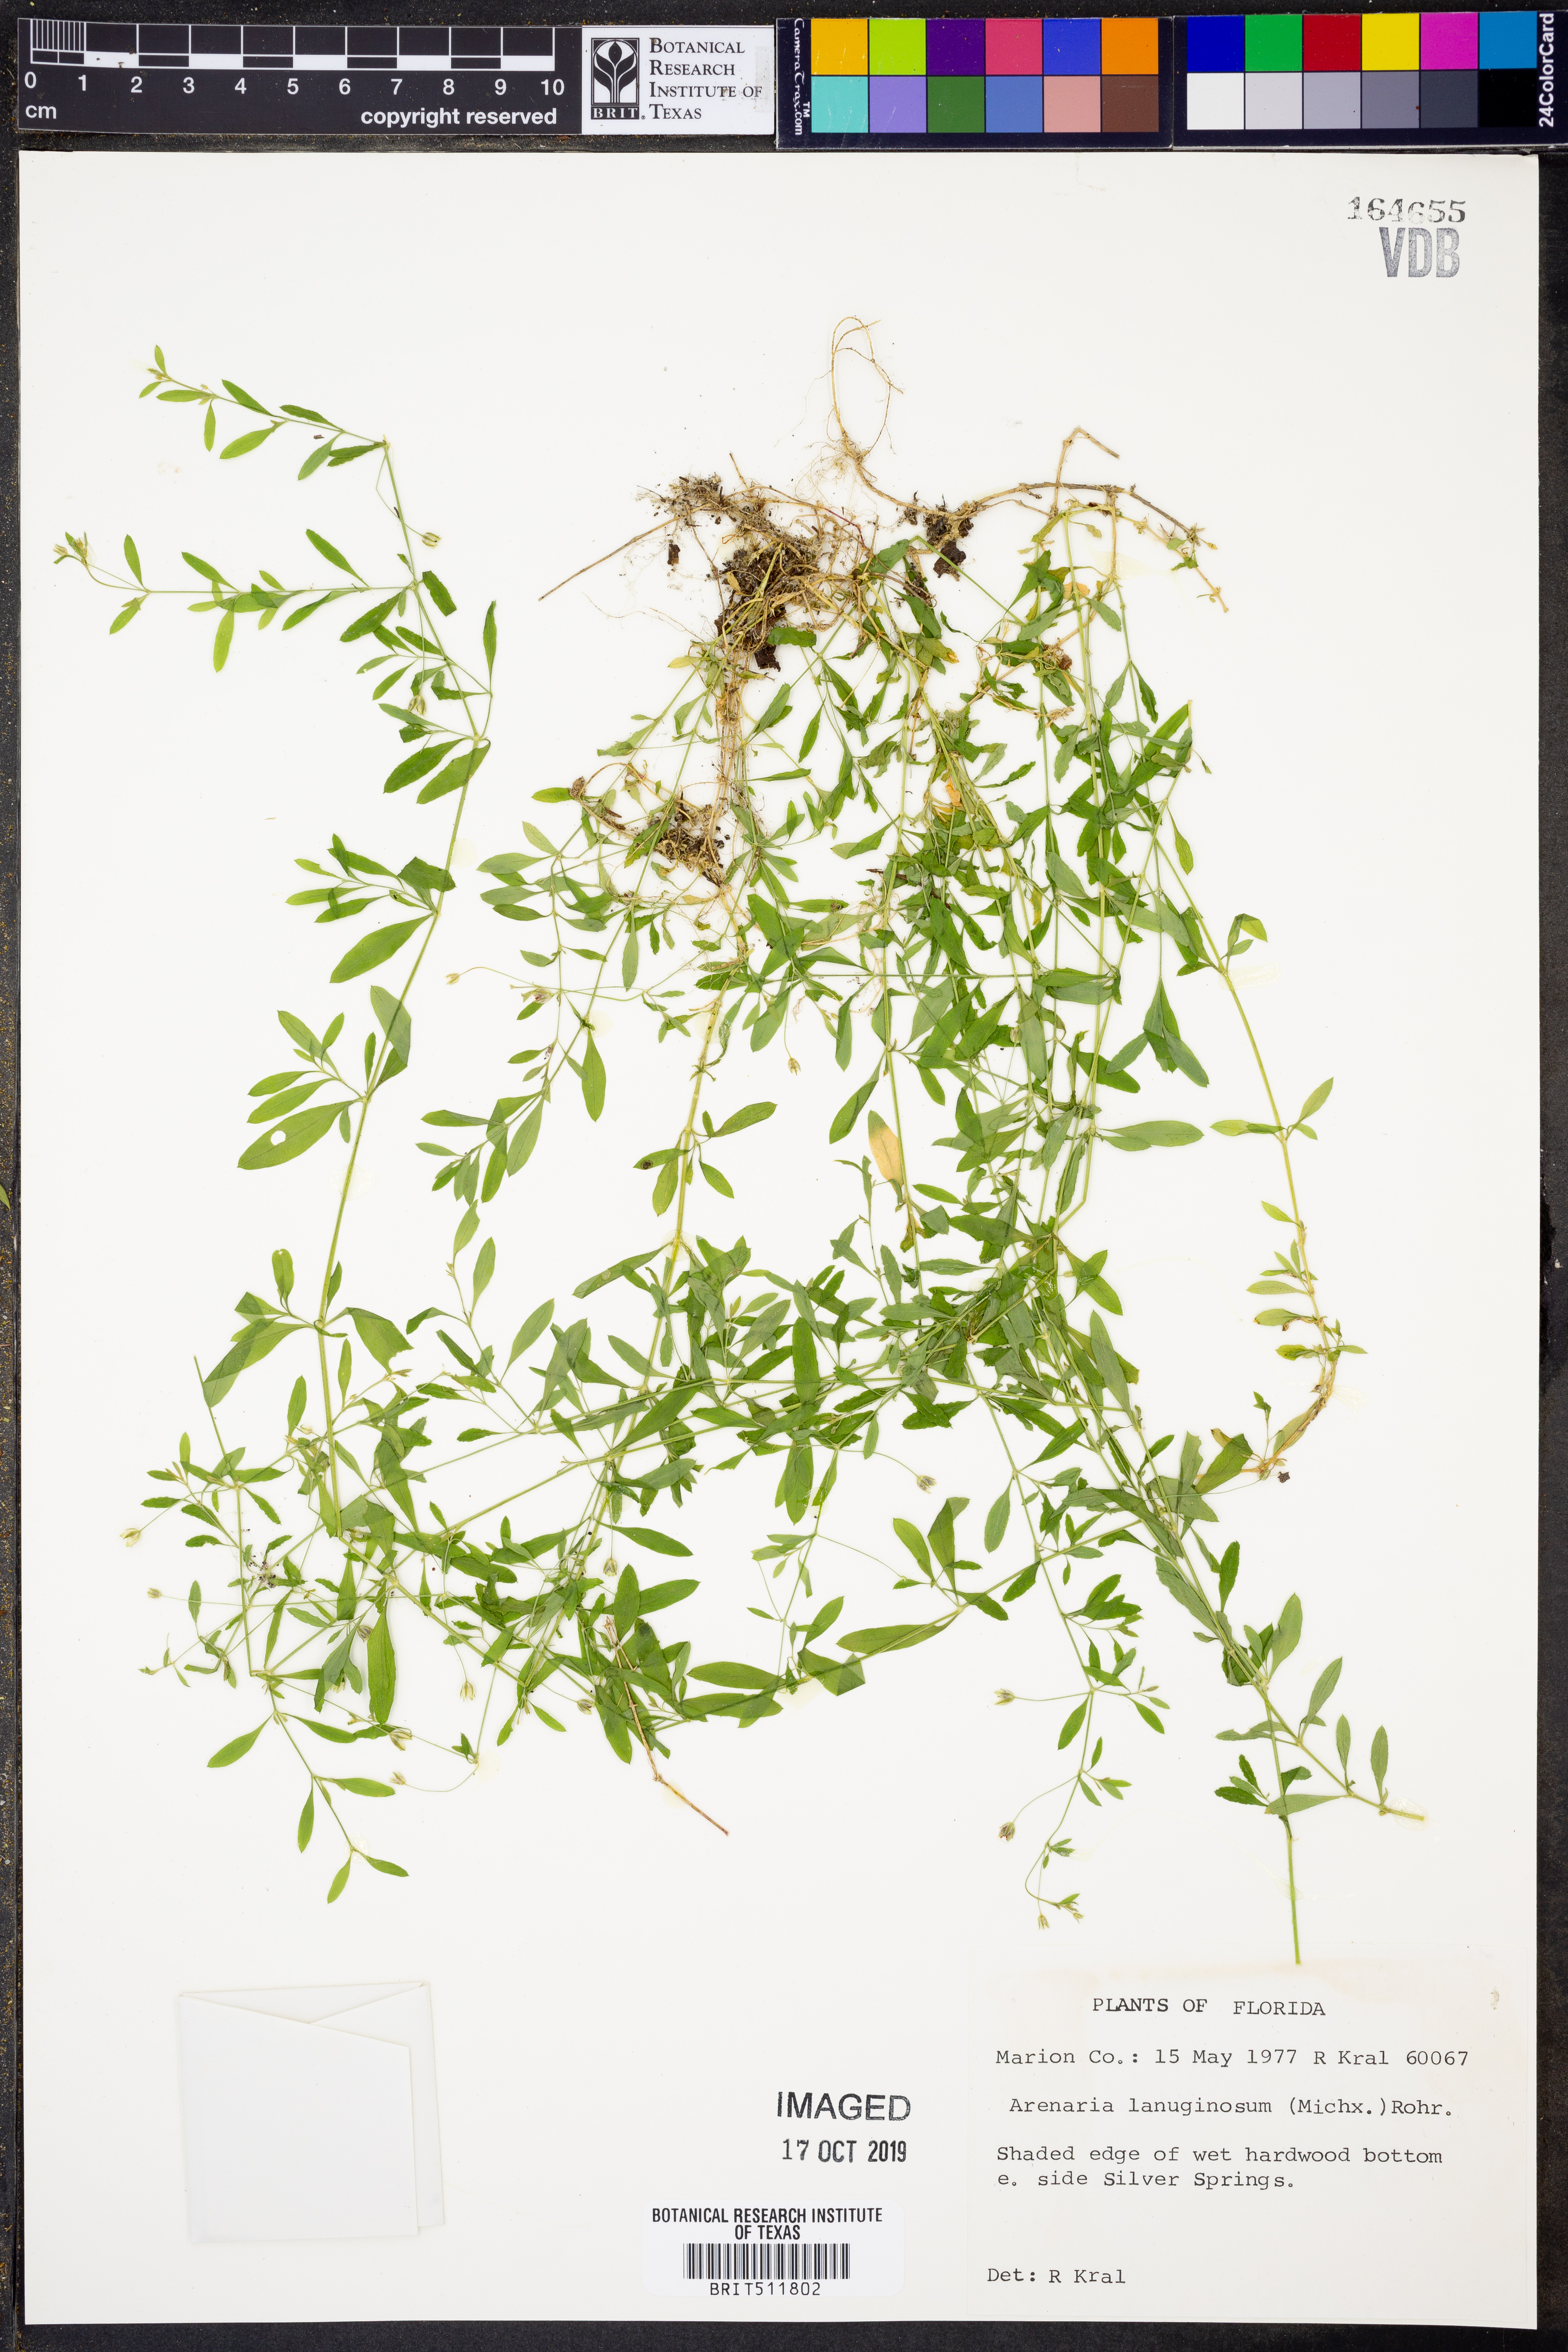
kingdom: Plantae
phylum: Tracheophyta
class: Magnoliopsida
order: Caryophyllales
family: Caryophyllaceae
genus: Arenaria
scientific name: Arenaria lanuginosa
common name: Spread sandwort
